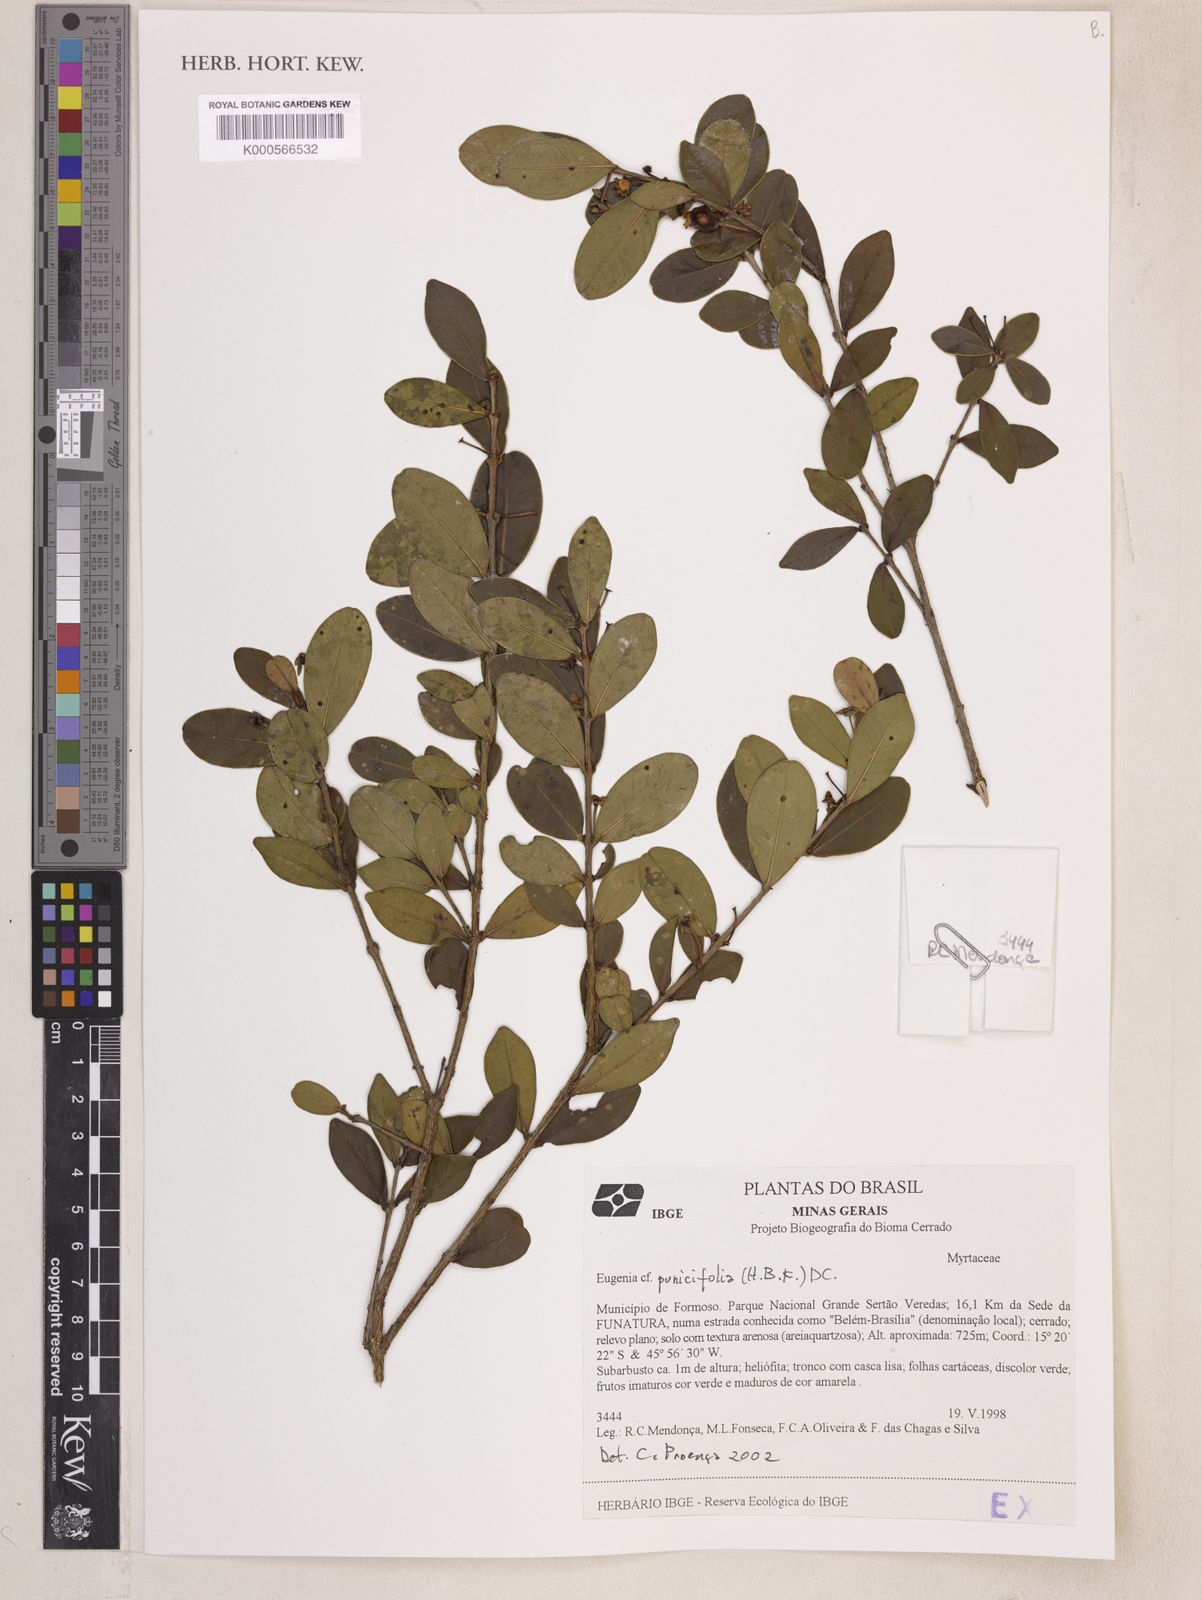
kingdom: Plantae
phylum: Tracheophyta
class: Magnoliopsida
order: Myrtales
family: Myrtaceae
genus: Eugenia
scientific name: Eugenia punicifolia
